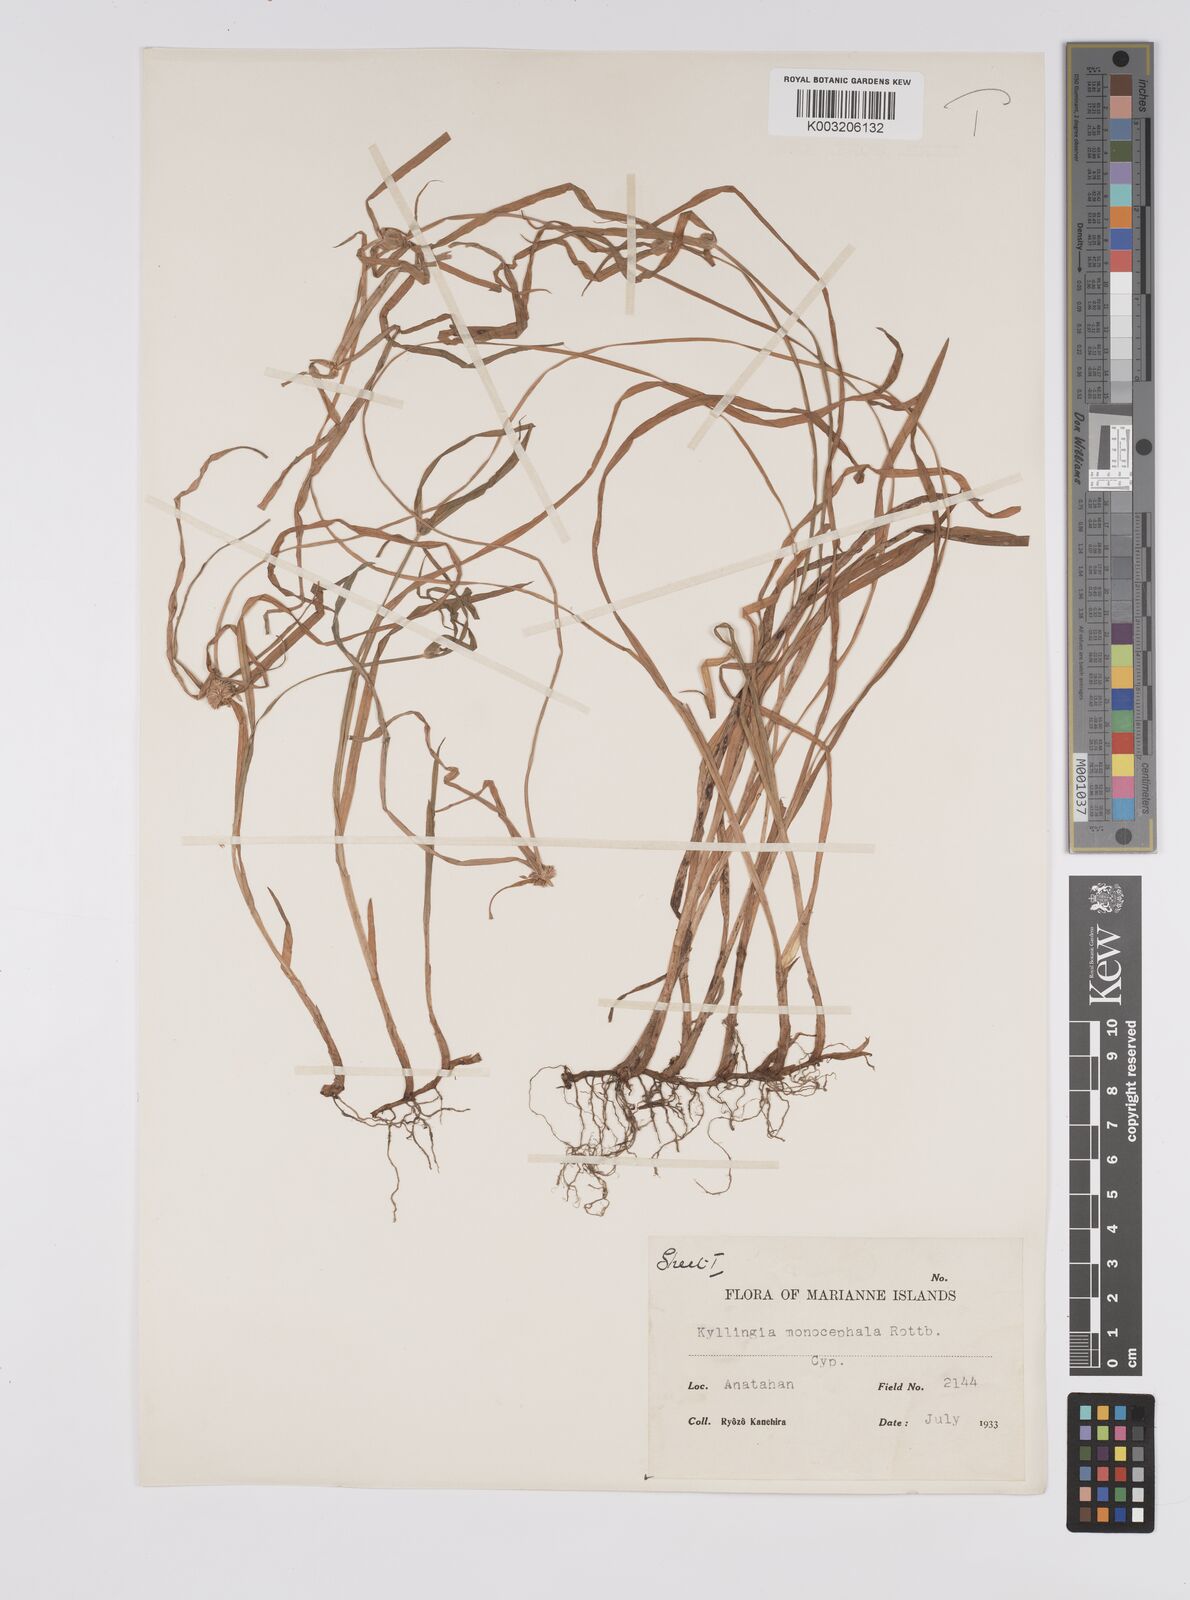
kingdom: Plantae
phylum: Tracheophyta
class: Liliopsida
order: Poales
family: Cyperaceae
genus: Cyperus
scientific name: Cyperus nemoralis
